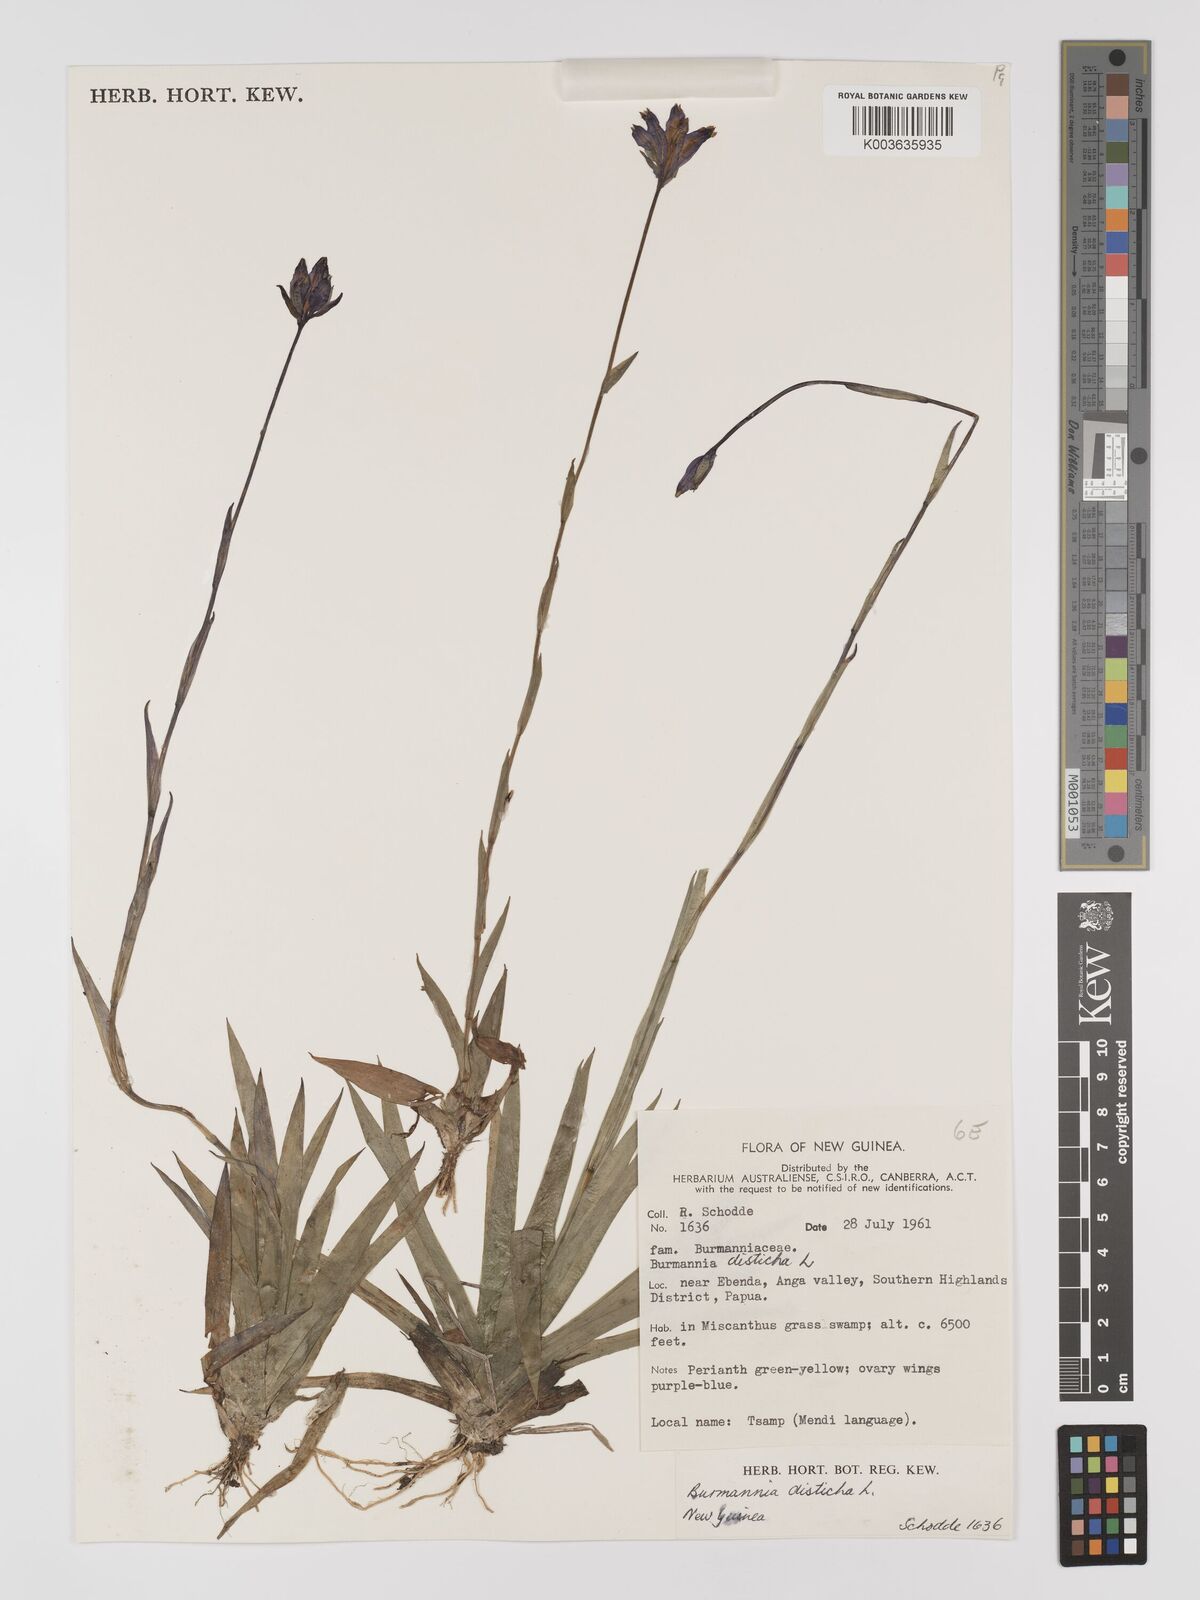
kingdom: Plantae
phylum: Tracheophyta
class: Liliopsida
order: Dioscoreales
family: Burmanniaceae
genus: Burmannia
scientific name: Burmannia disticha
